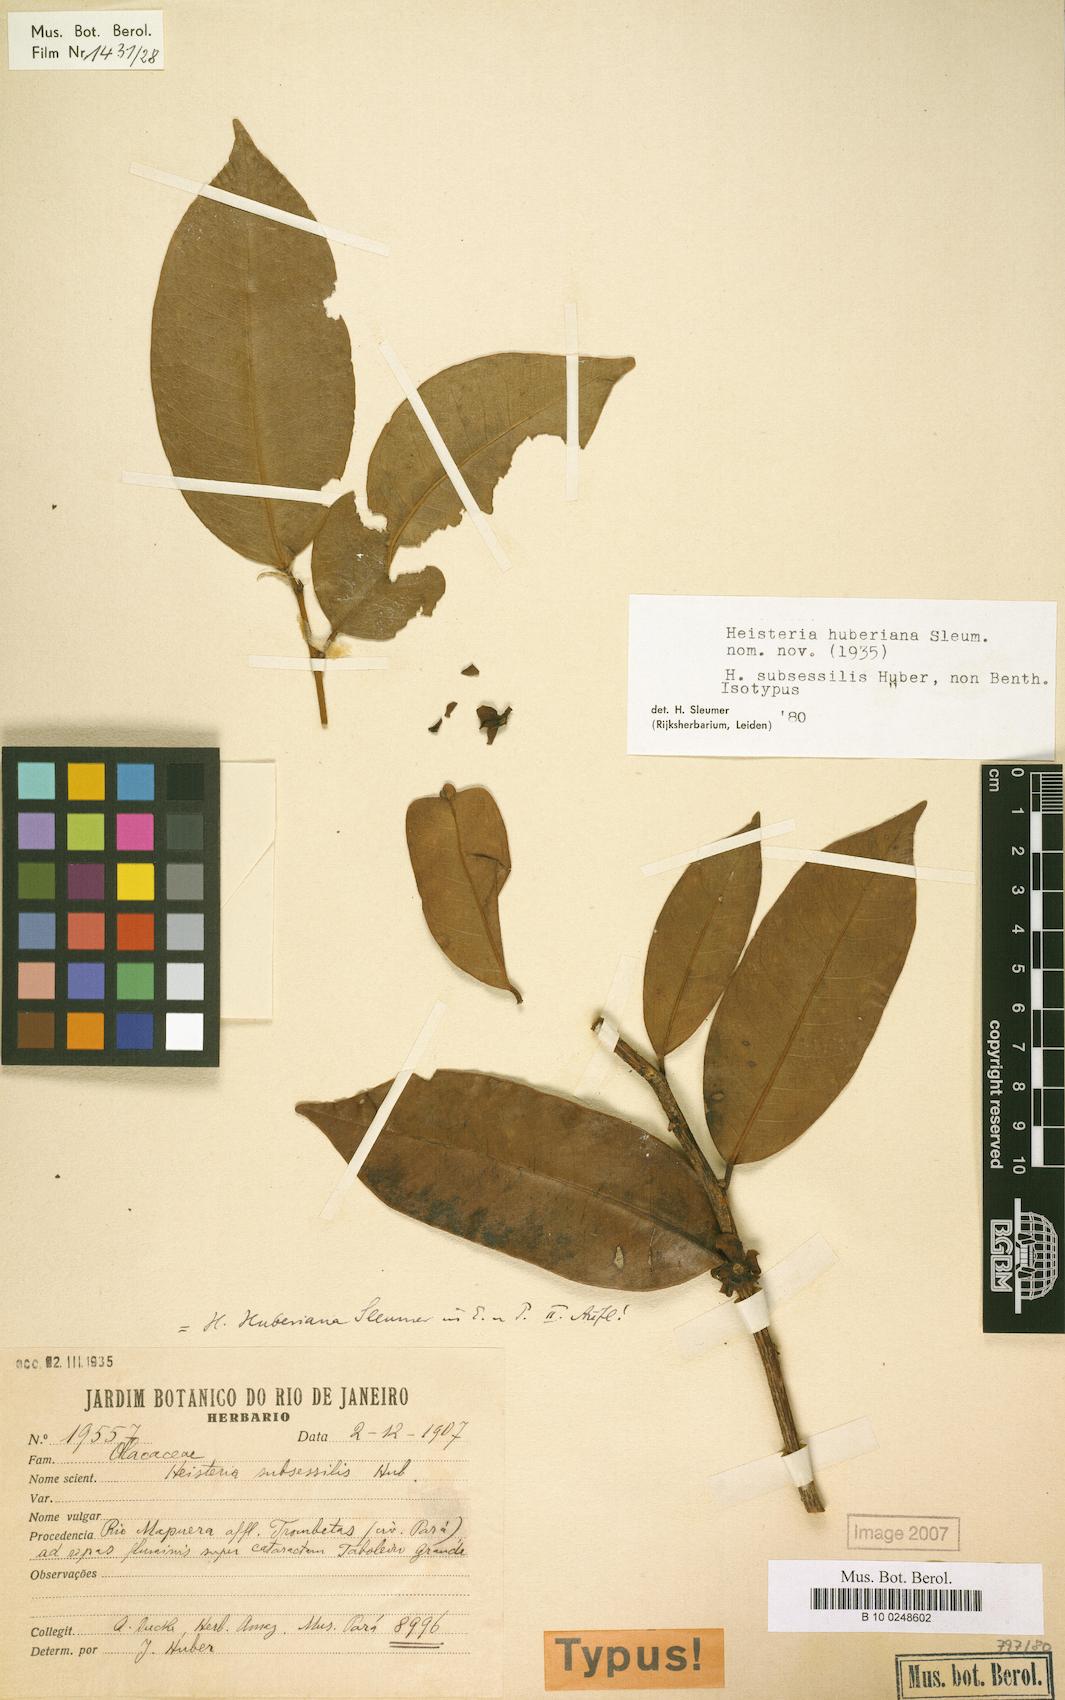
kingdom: Plantae
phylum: Tracheophyta
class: Magnoliopsida
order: Santalales
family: Erythropalaceae
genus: Heisteria
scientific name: Heisteria huberiana
